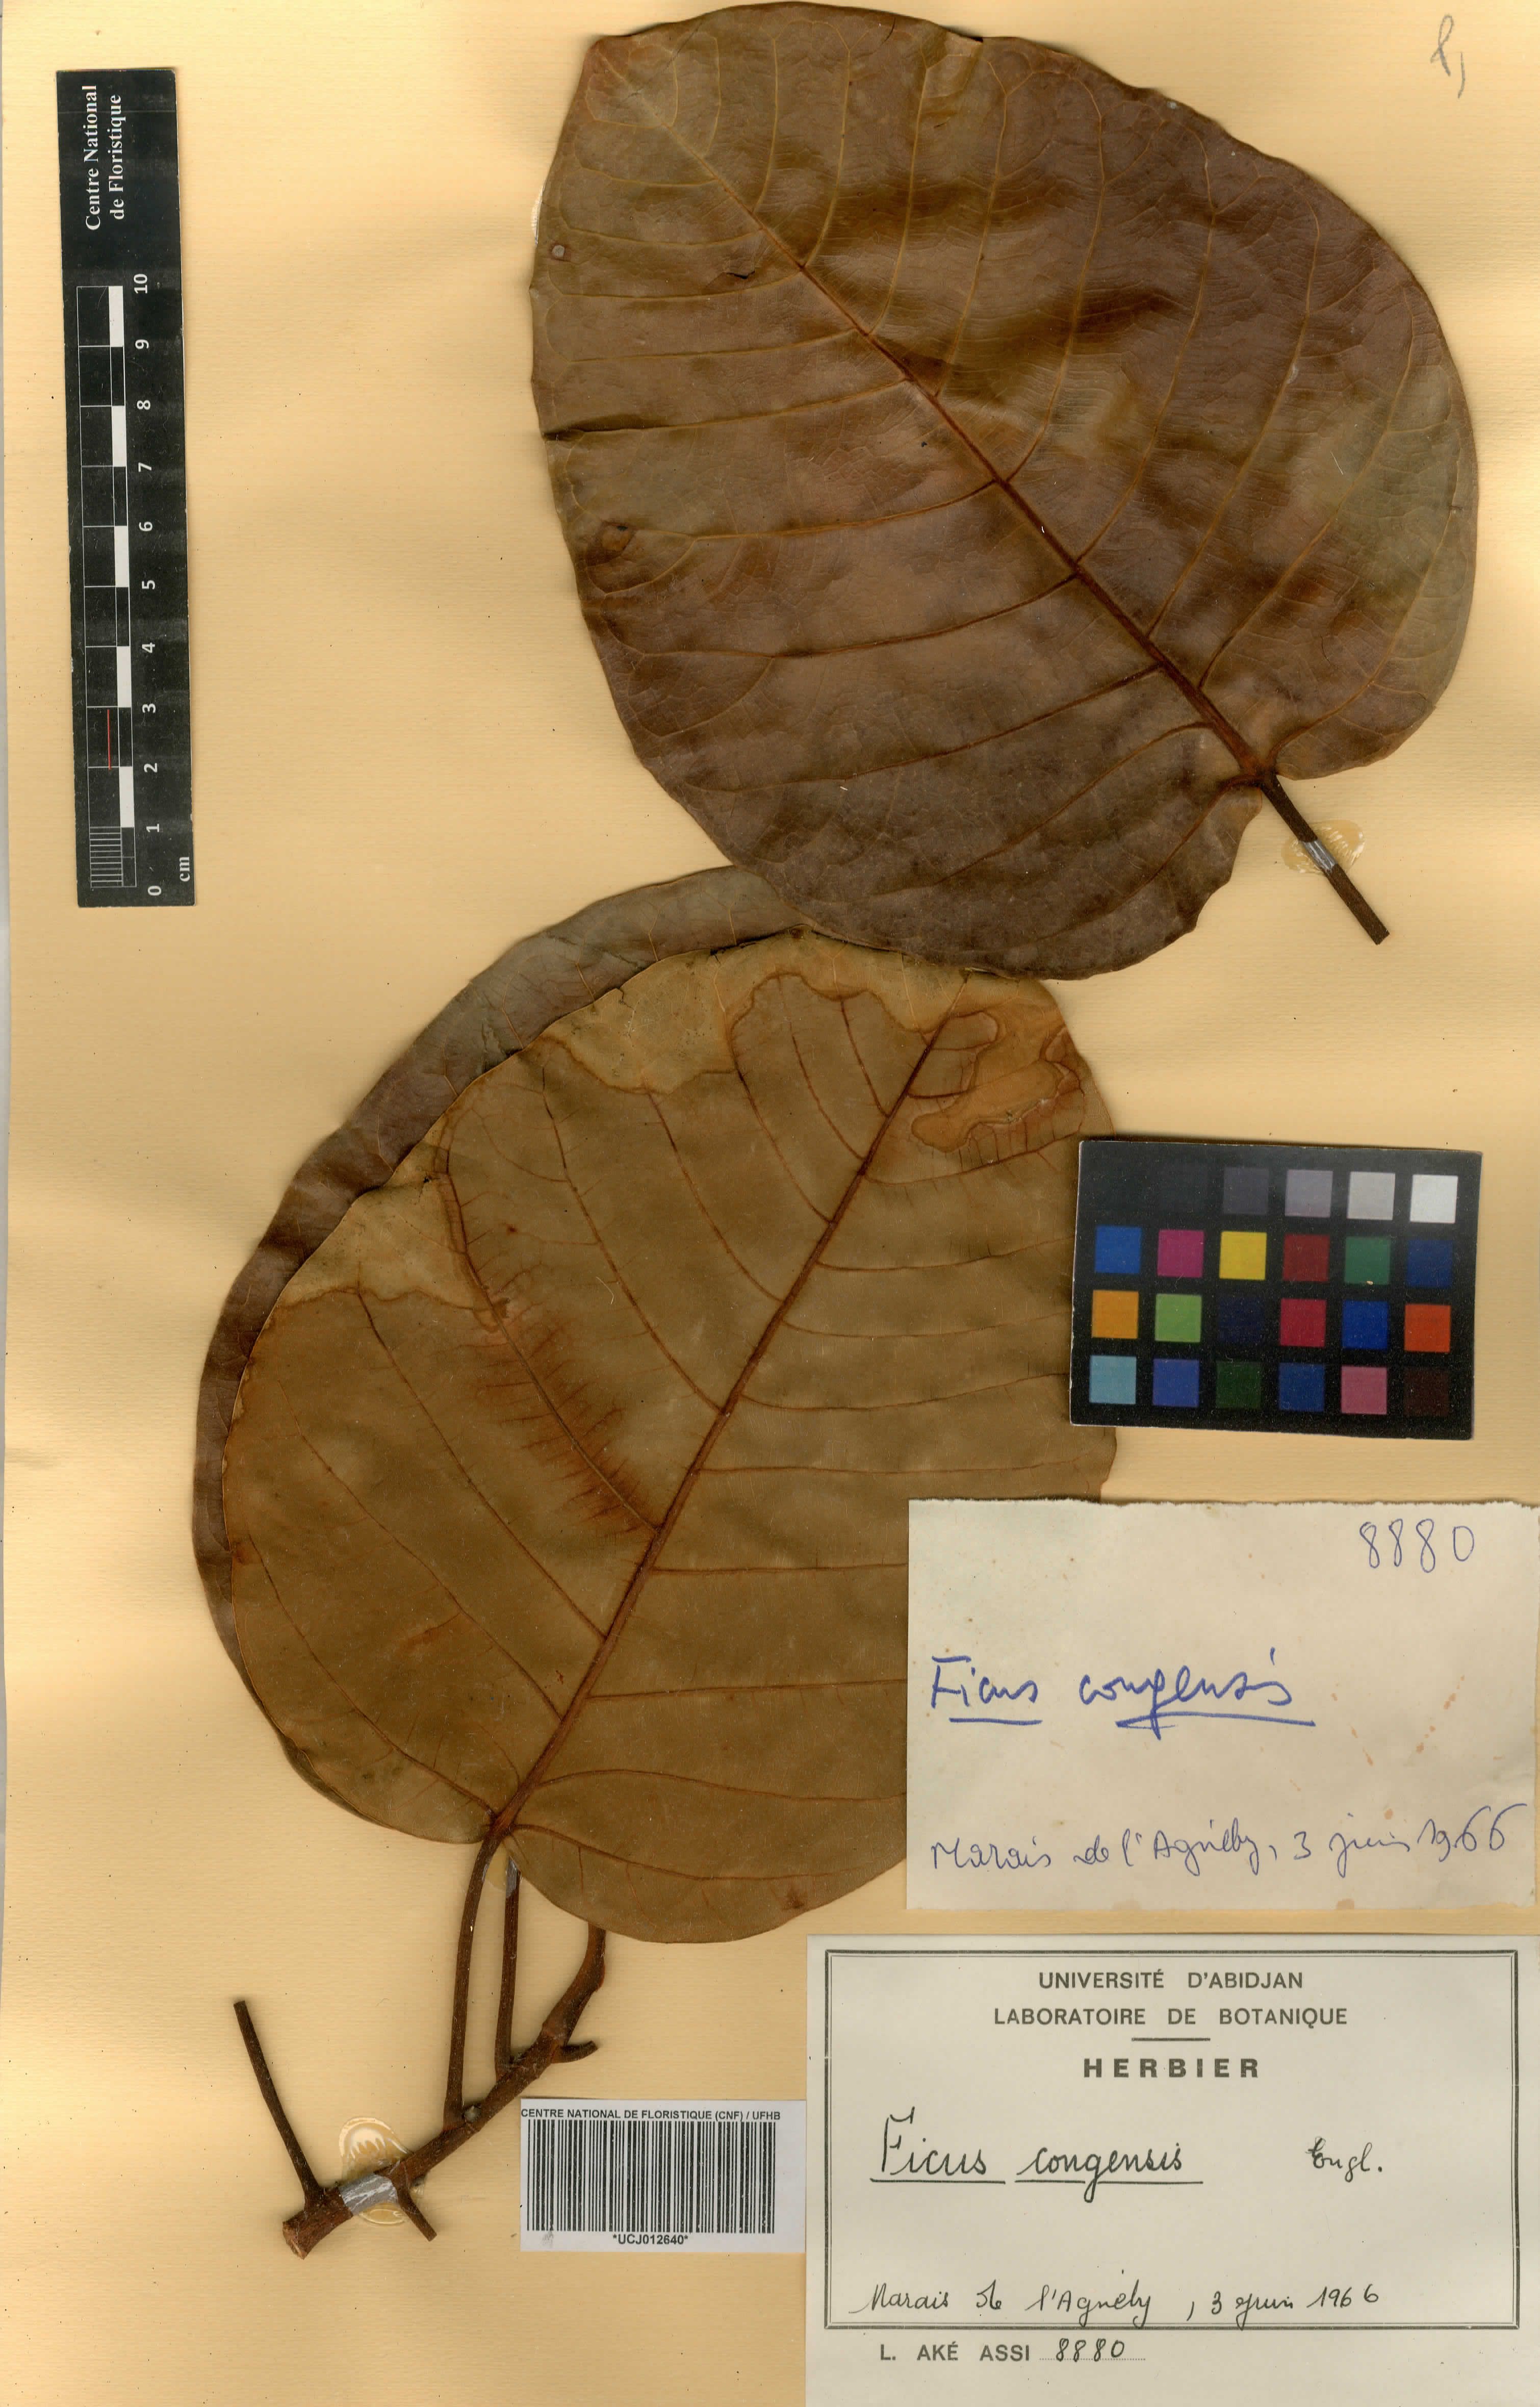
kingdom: Plantae
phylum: Tracheophyta
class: Magnoliopsida
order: Rosales
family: Moraceae
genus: Ficus
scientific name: Ficus trichopoda
